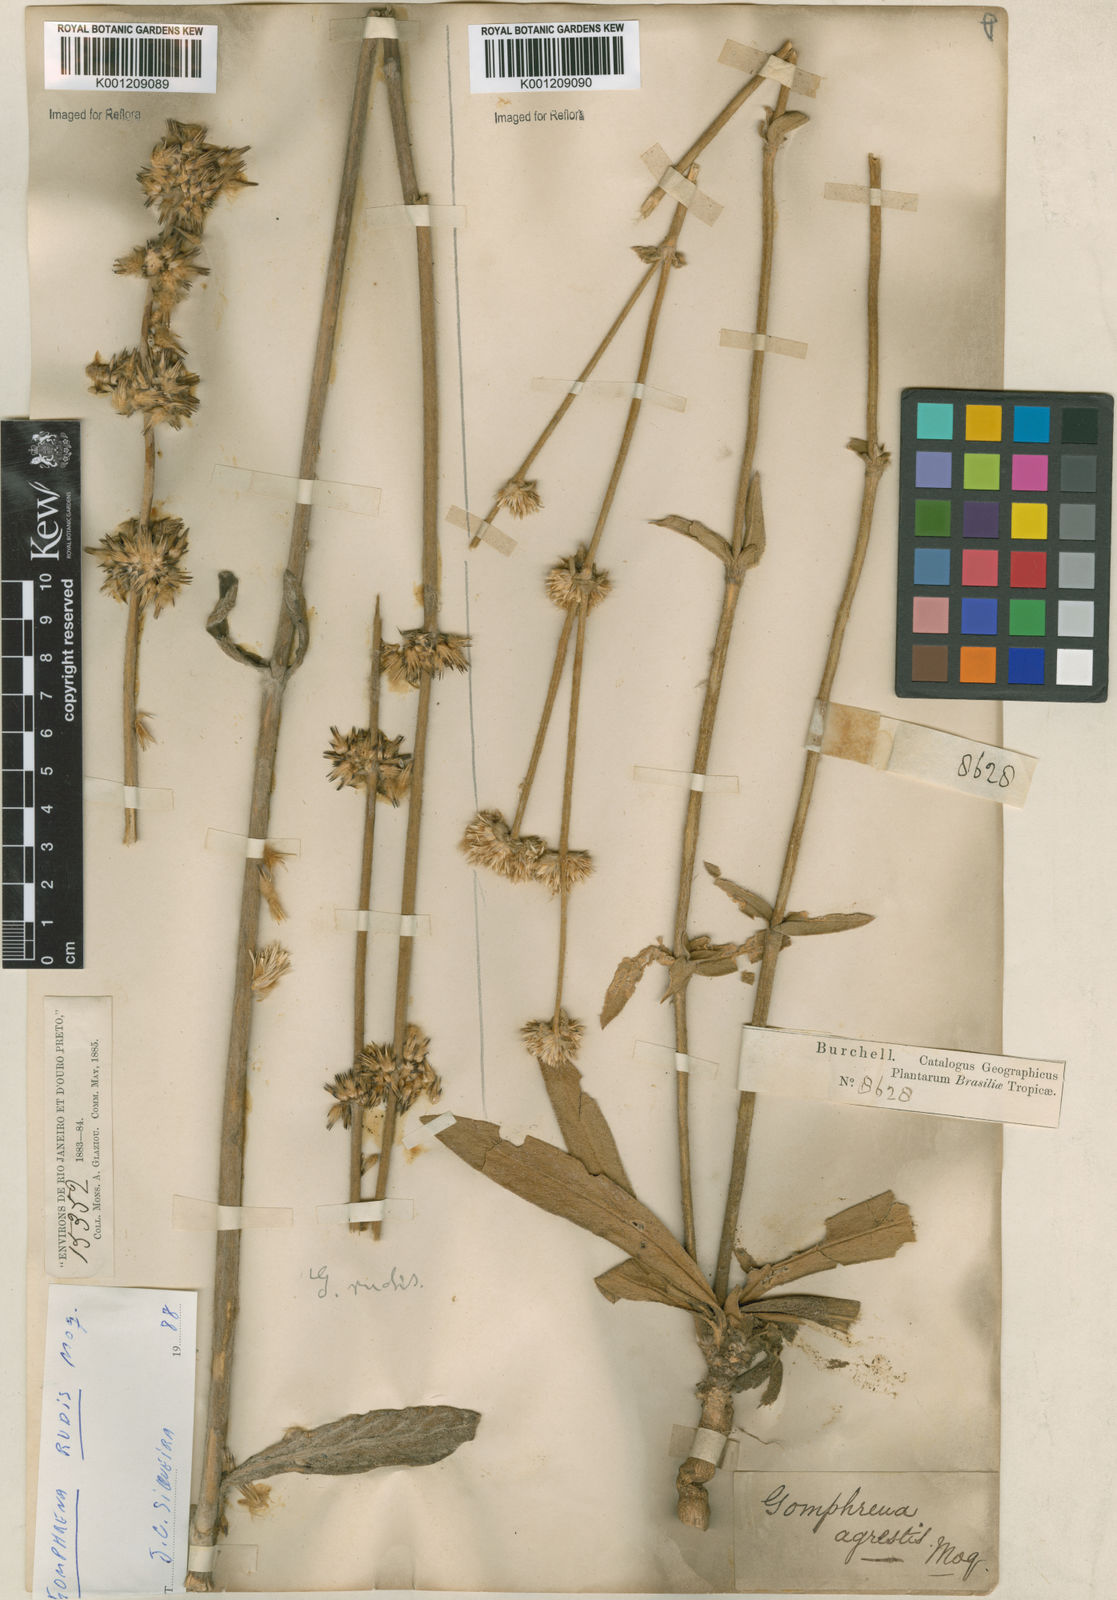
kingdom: Plantae
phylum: Tracheophyta
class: Magnoliopsida
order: Caryophyllales
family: Amaranthaceae
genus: Gomphrena
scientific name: Gomphrena agrestis
